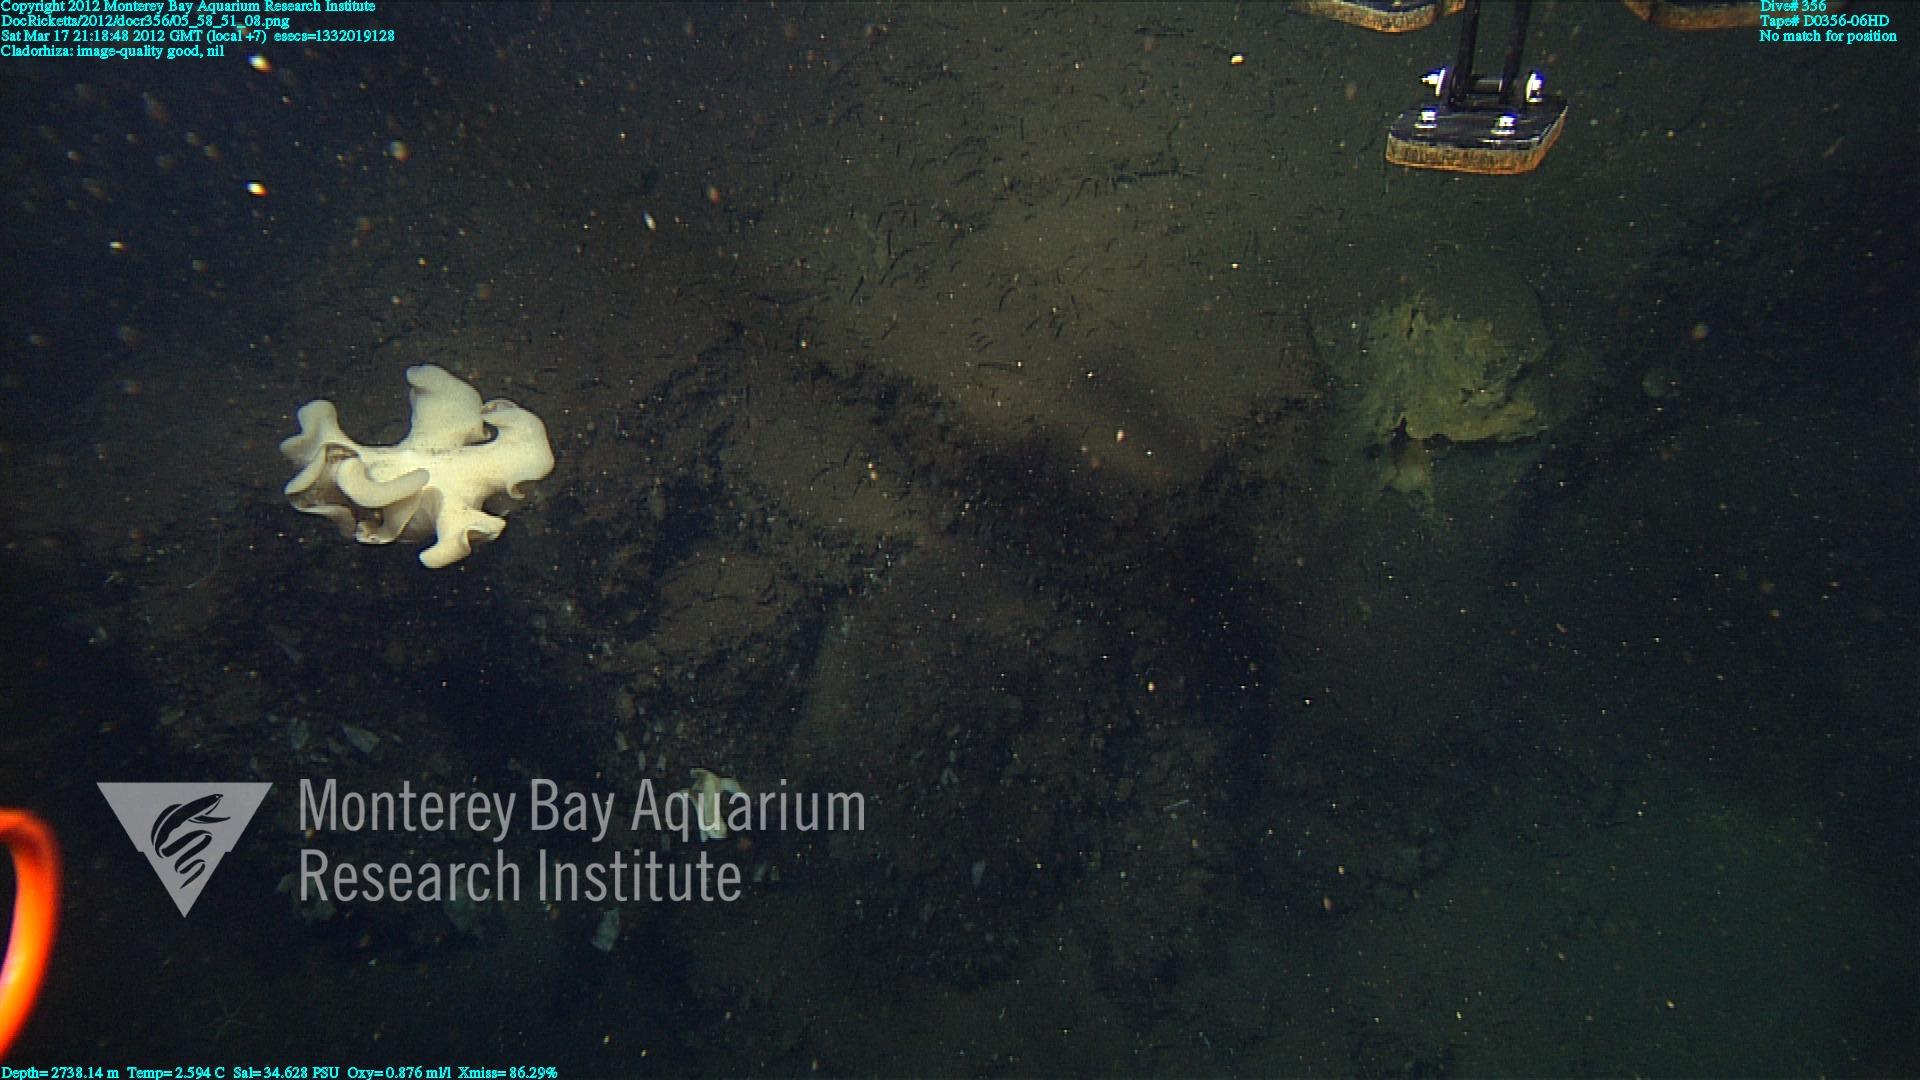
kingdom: Animalia
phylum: Porifera
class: Demospongiae
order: Poecilosclerida
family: Cladorhizidae
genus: Cladorhiza
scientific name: Cladorhiza
